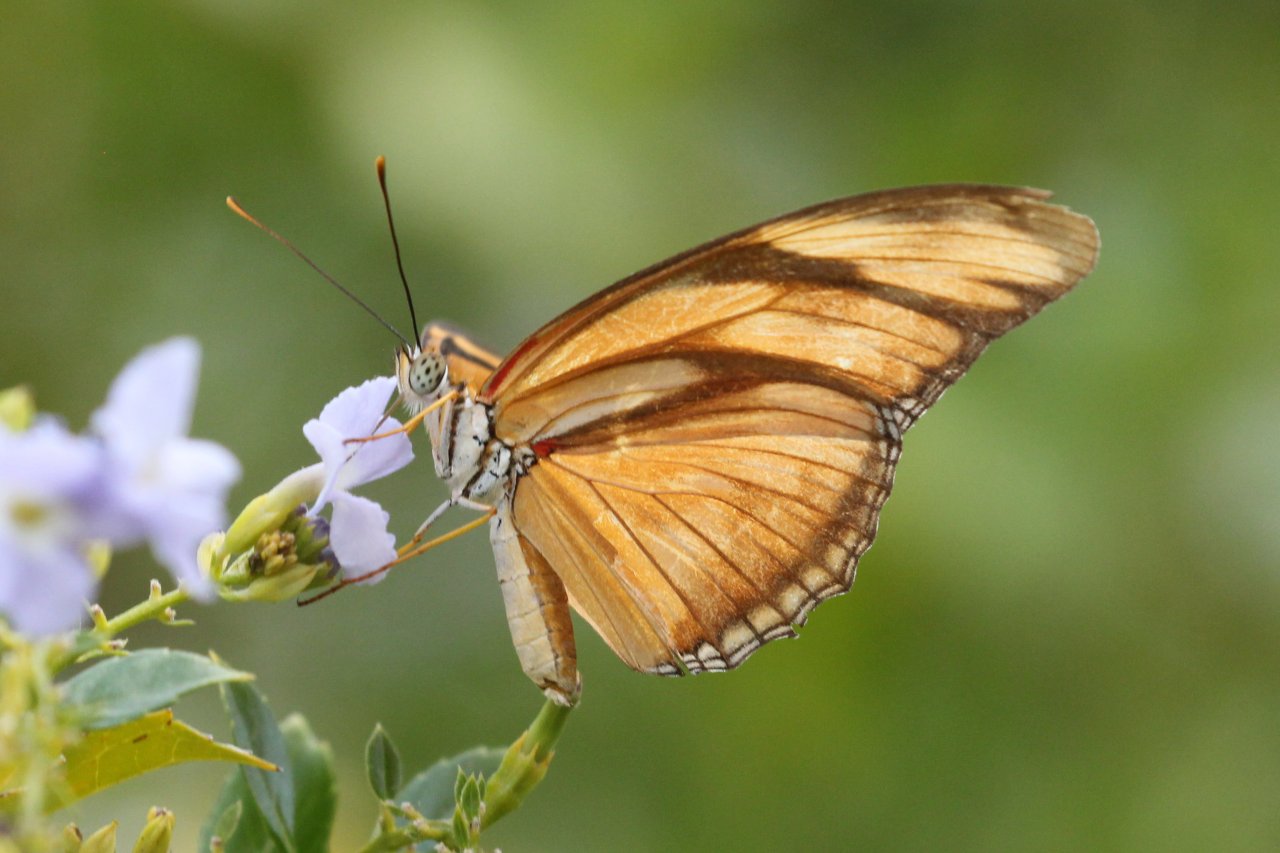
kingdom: Animalia
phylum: Arthropoda
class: Insecta
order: Lepidoptera
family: Nymphalidae
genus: Dryas
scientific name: Dryas iulia
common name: Julia
